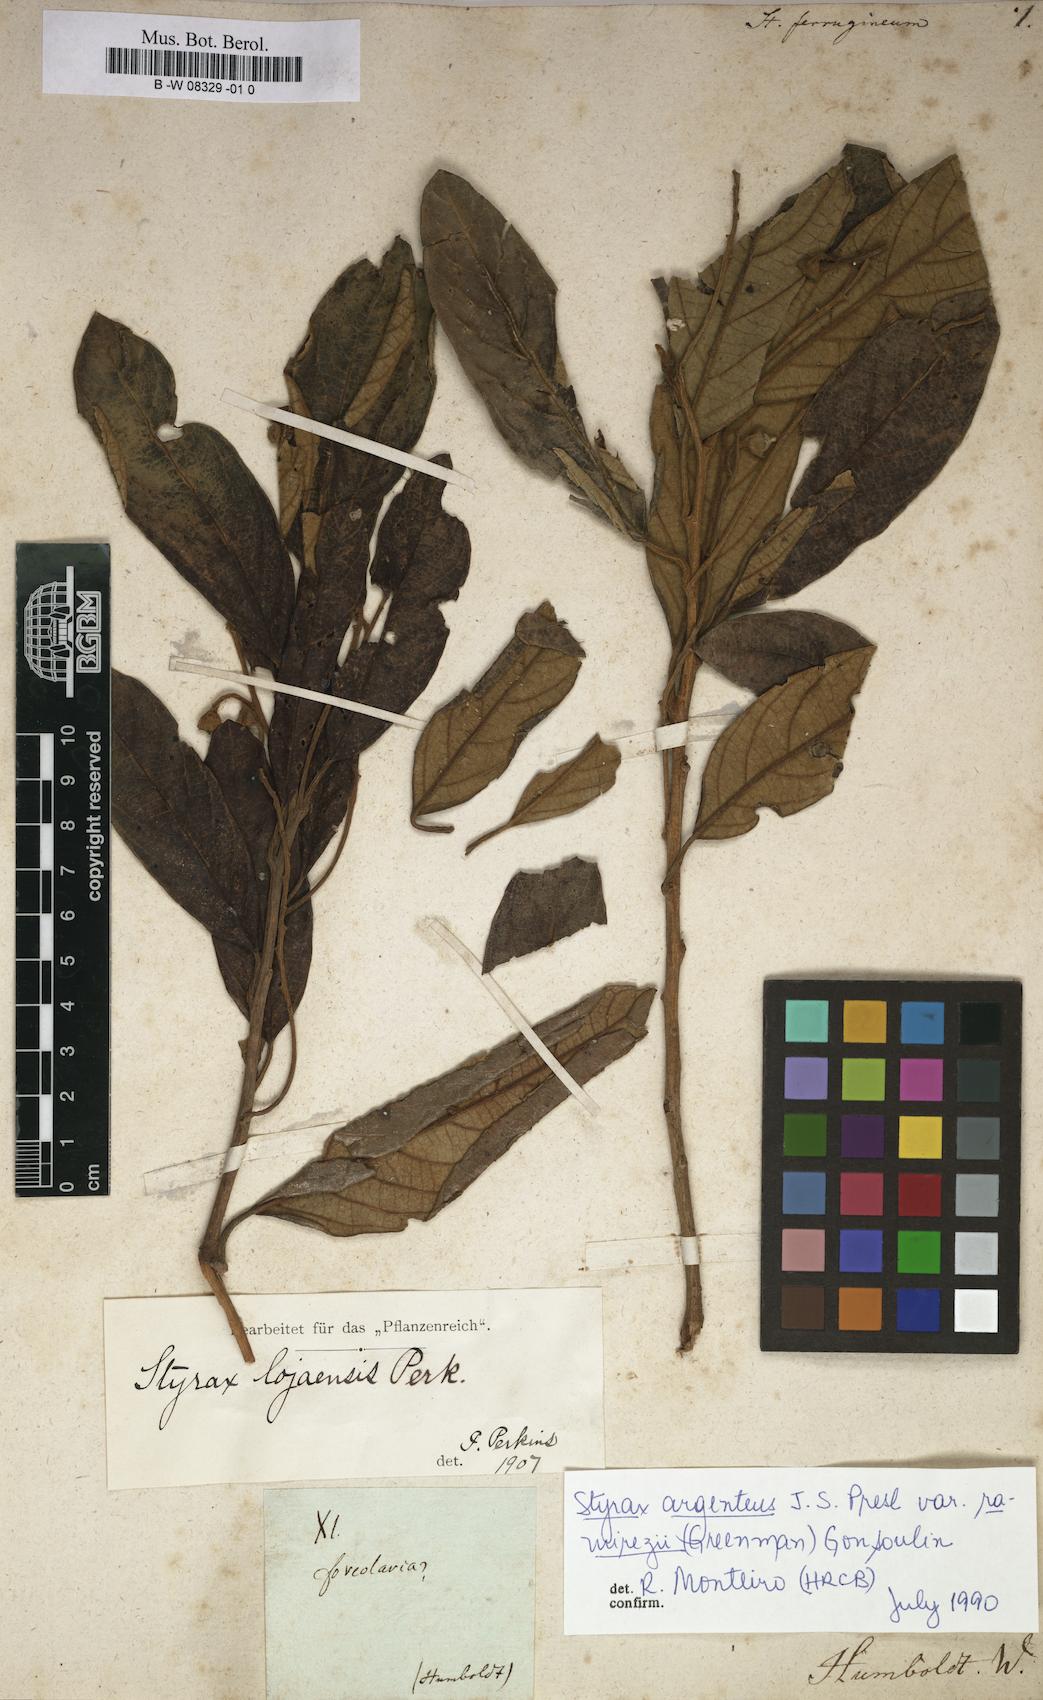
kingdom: Plantae
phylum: Tracheophyta
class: Magnoliopsida
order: Ericales
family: Styracaceae
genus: Styrax
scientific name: Styrax ferrugineus
